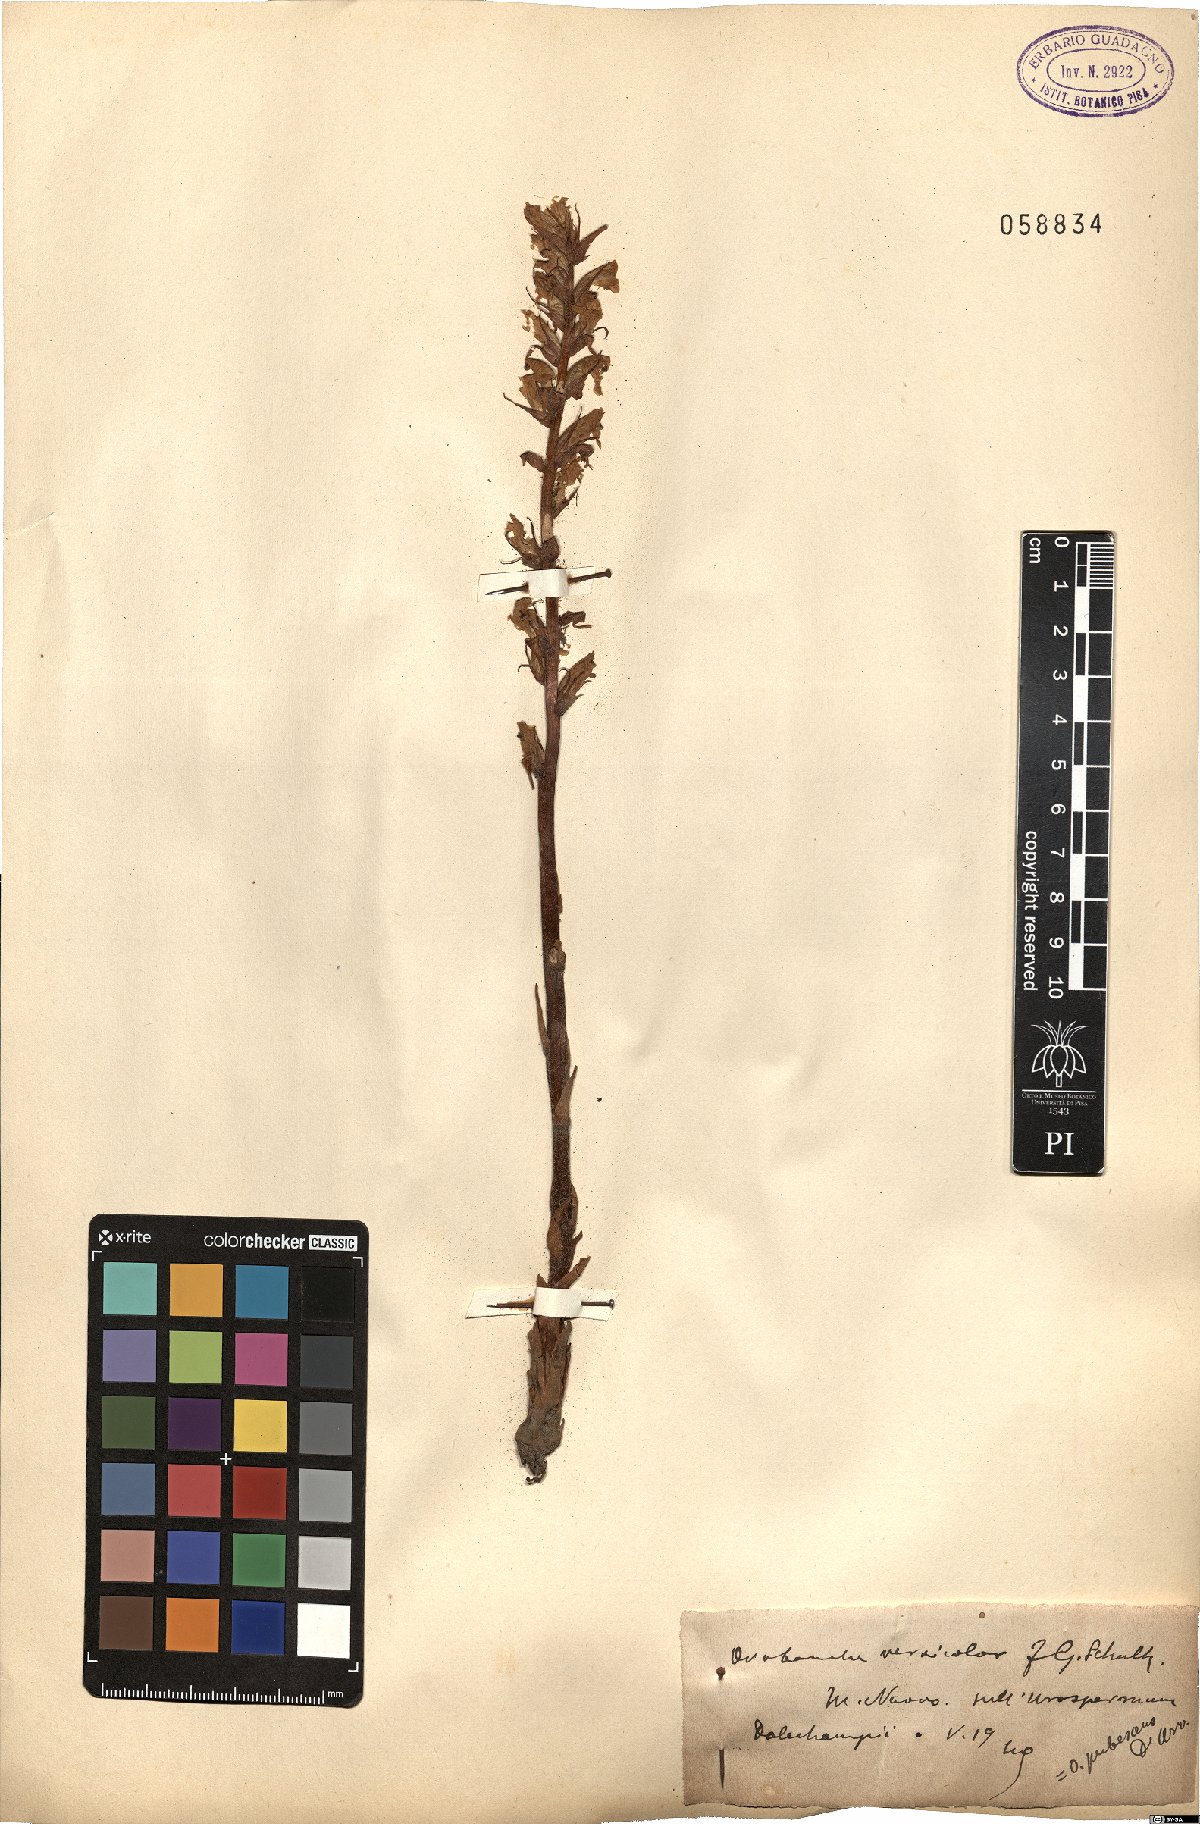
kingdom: Plantae
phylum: Tracheophyta
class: Magnoliopsida
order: Lamiales
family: Orobanchaceae
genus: Orobanche
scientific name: Orobanche pubescens
